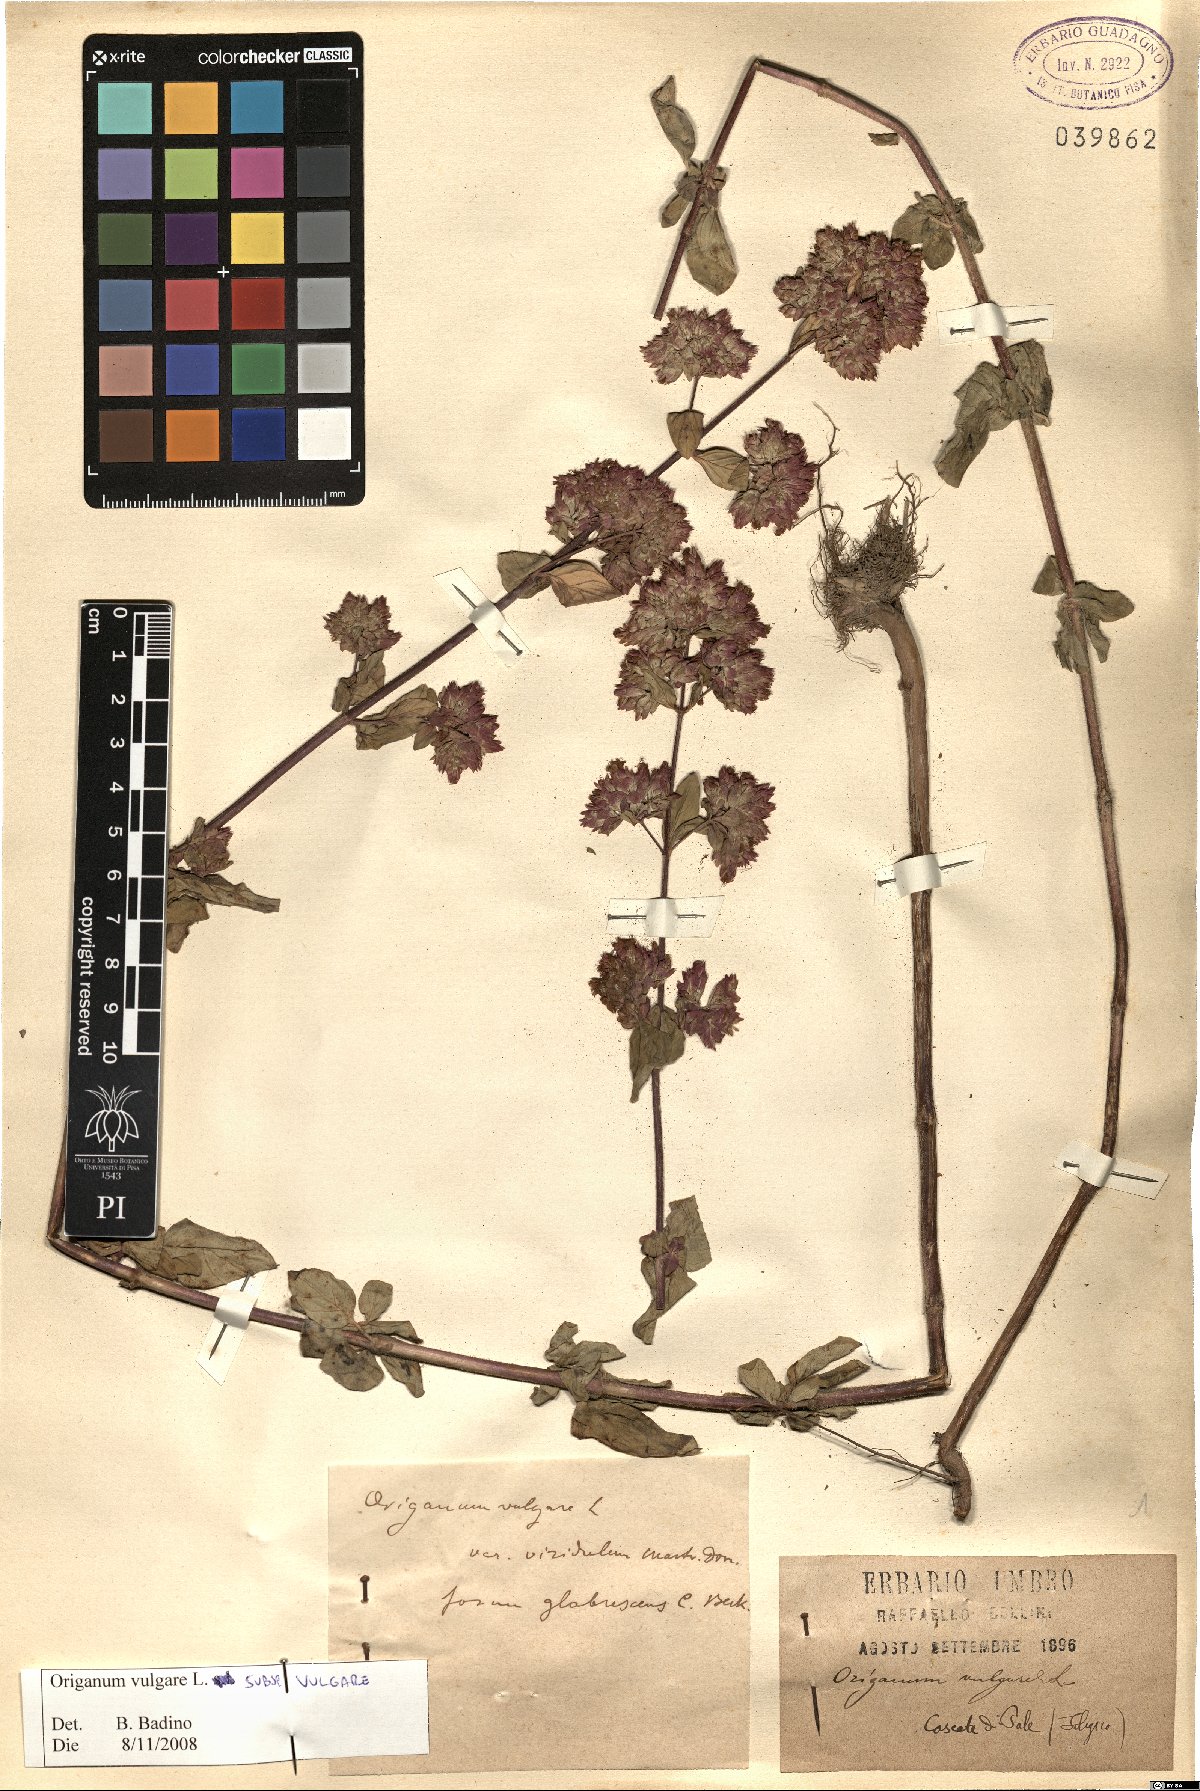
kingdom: Plantae
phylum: Tracheophyta
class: Magnoliopsida
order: Lamiales
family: Lamiaceae
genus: Origanum
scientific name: Origanum vulgare
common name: Wild marjoram
